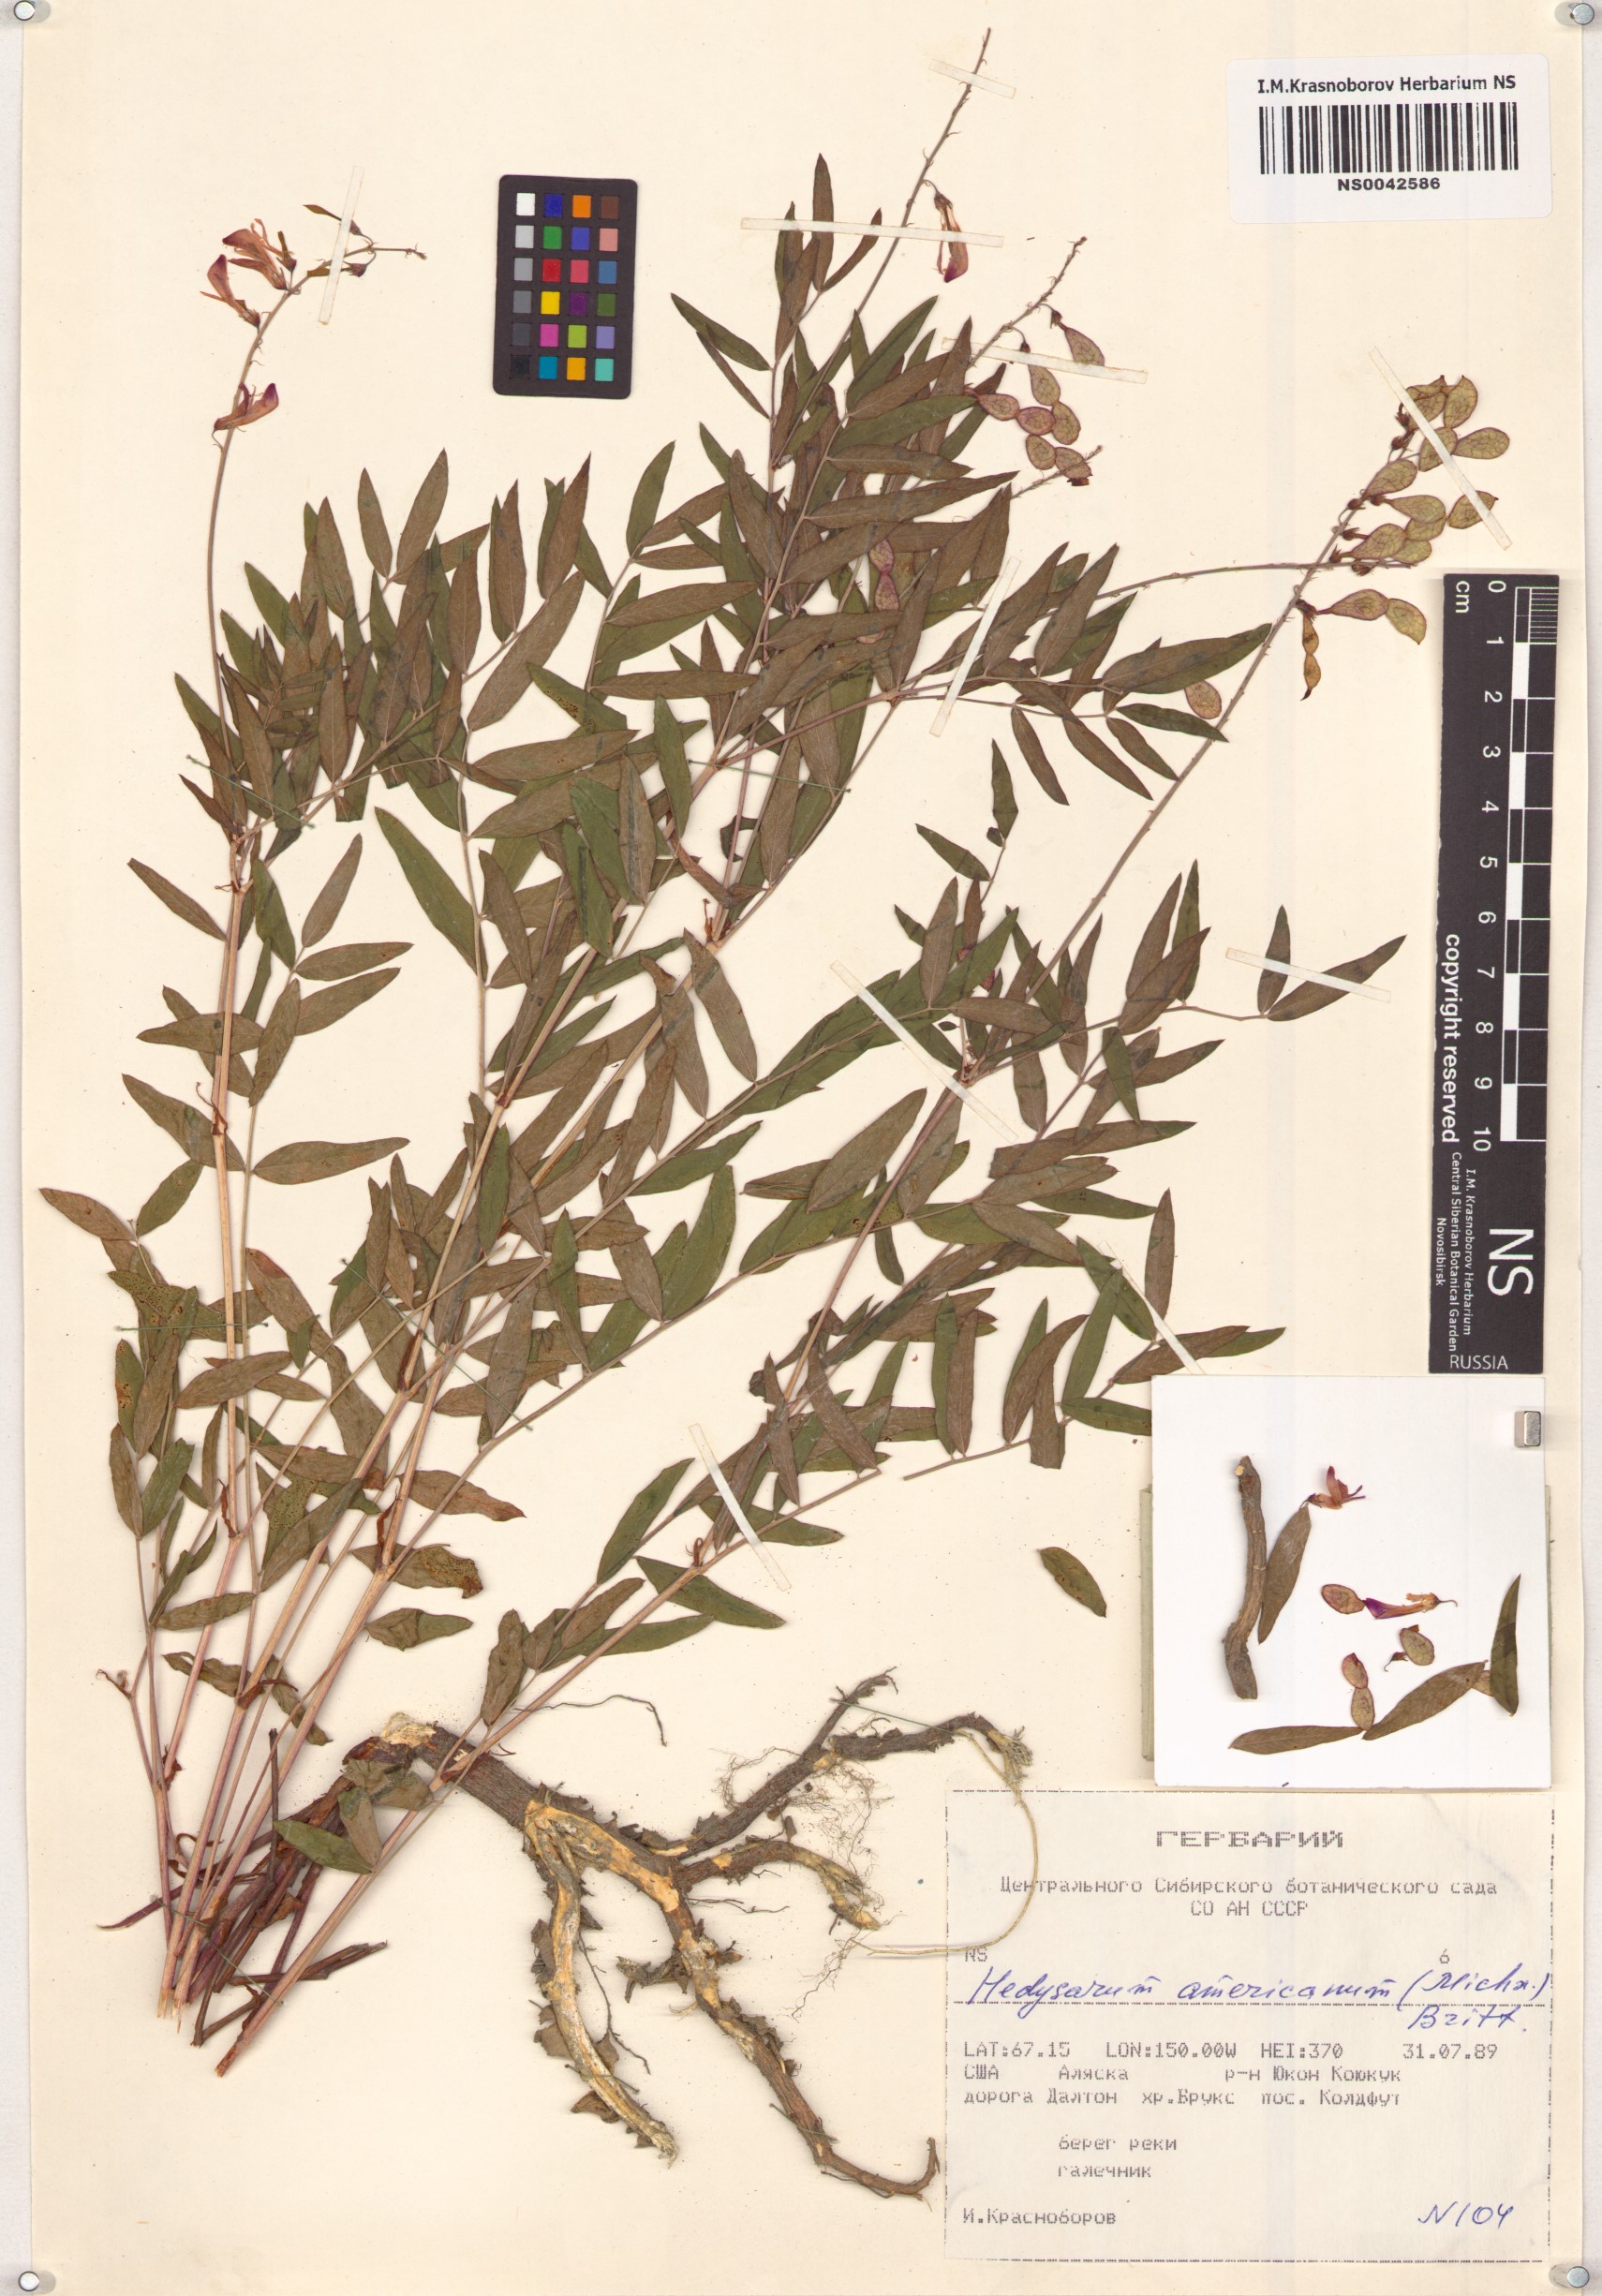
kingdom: Plantae
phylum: Tracheophyta
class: Magnoliopsida
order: Fabales
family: Fabaceae
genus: Hedysarum
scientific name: Hedysarum americanum
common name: Alpine hedysarum
